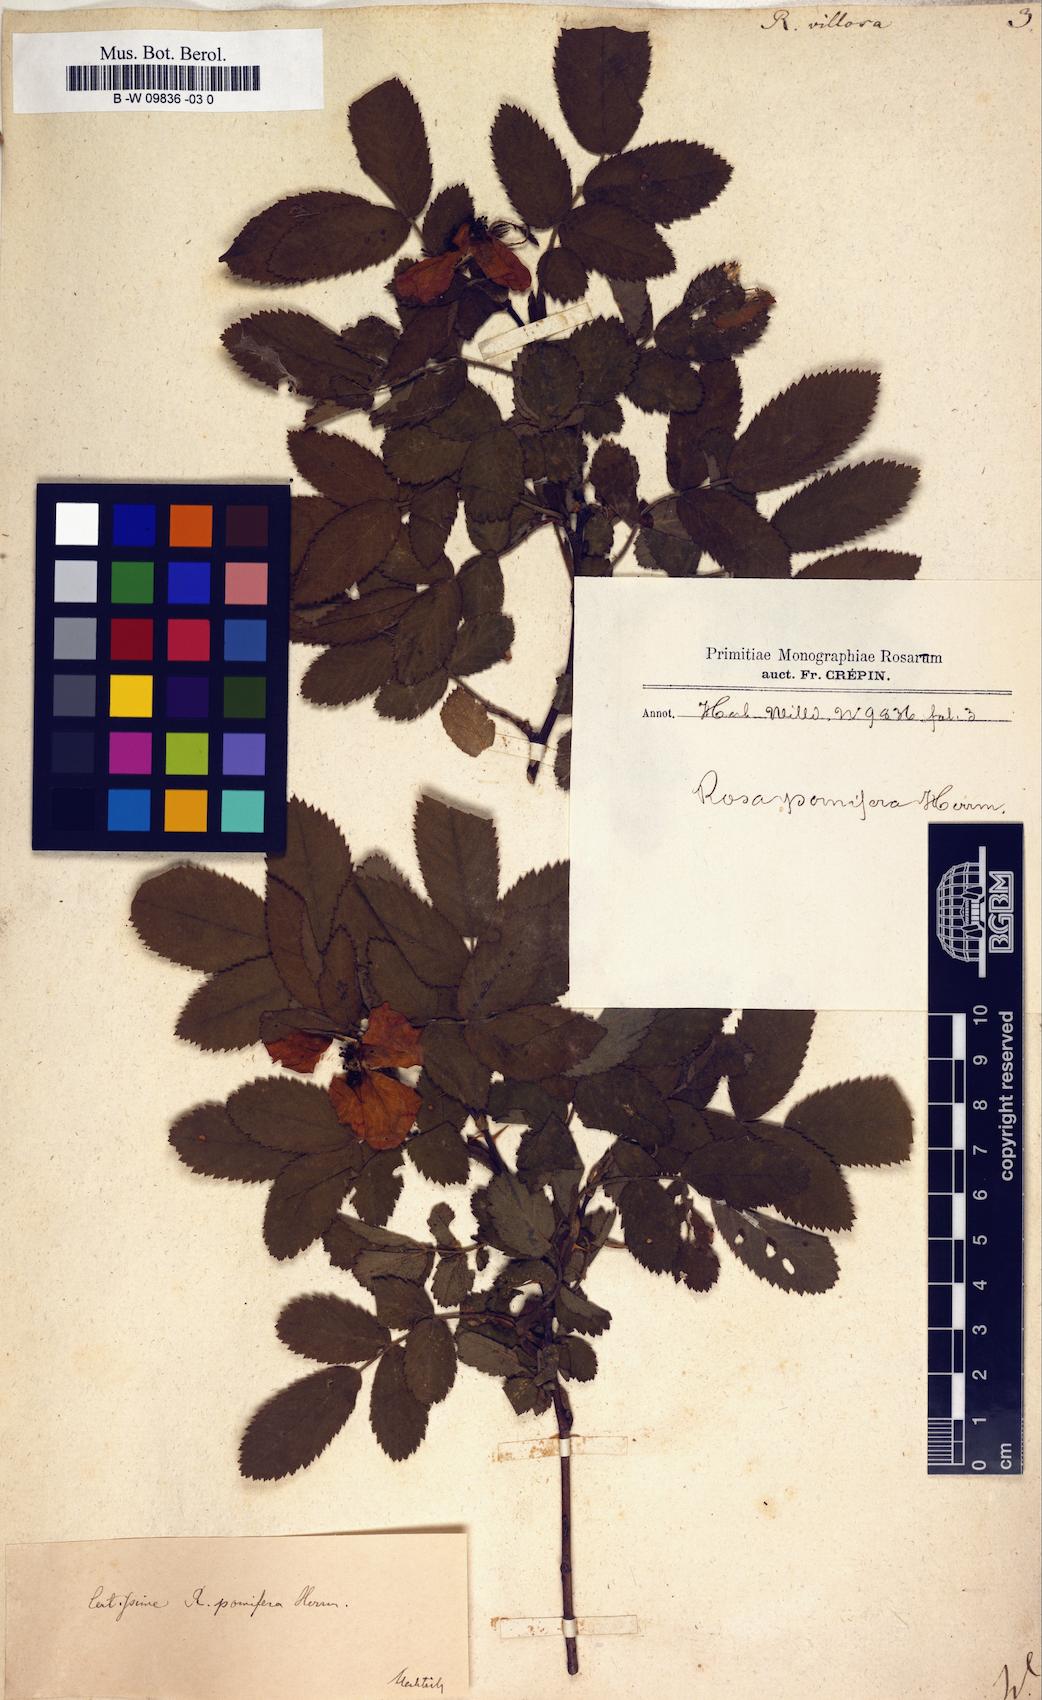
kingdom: Plantae
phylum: Tracheophyta
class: Magnoliopsida
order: Rosales
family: Rosaceae
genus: Rosa
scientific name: Rosa villosa
